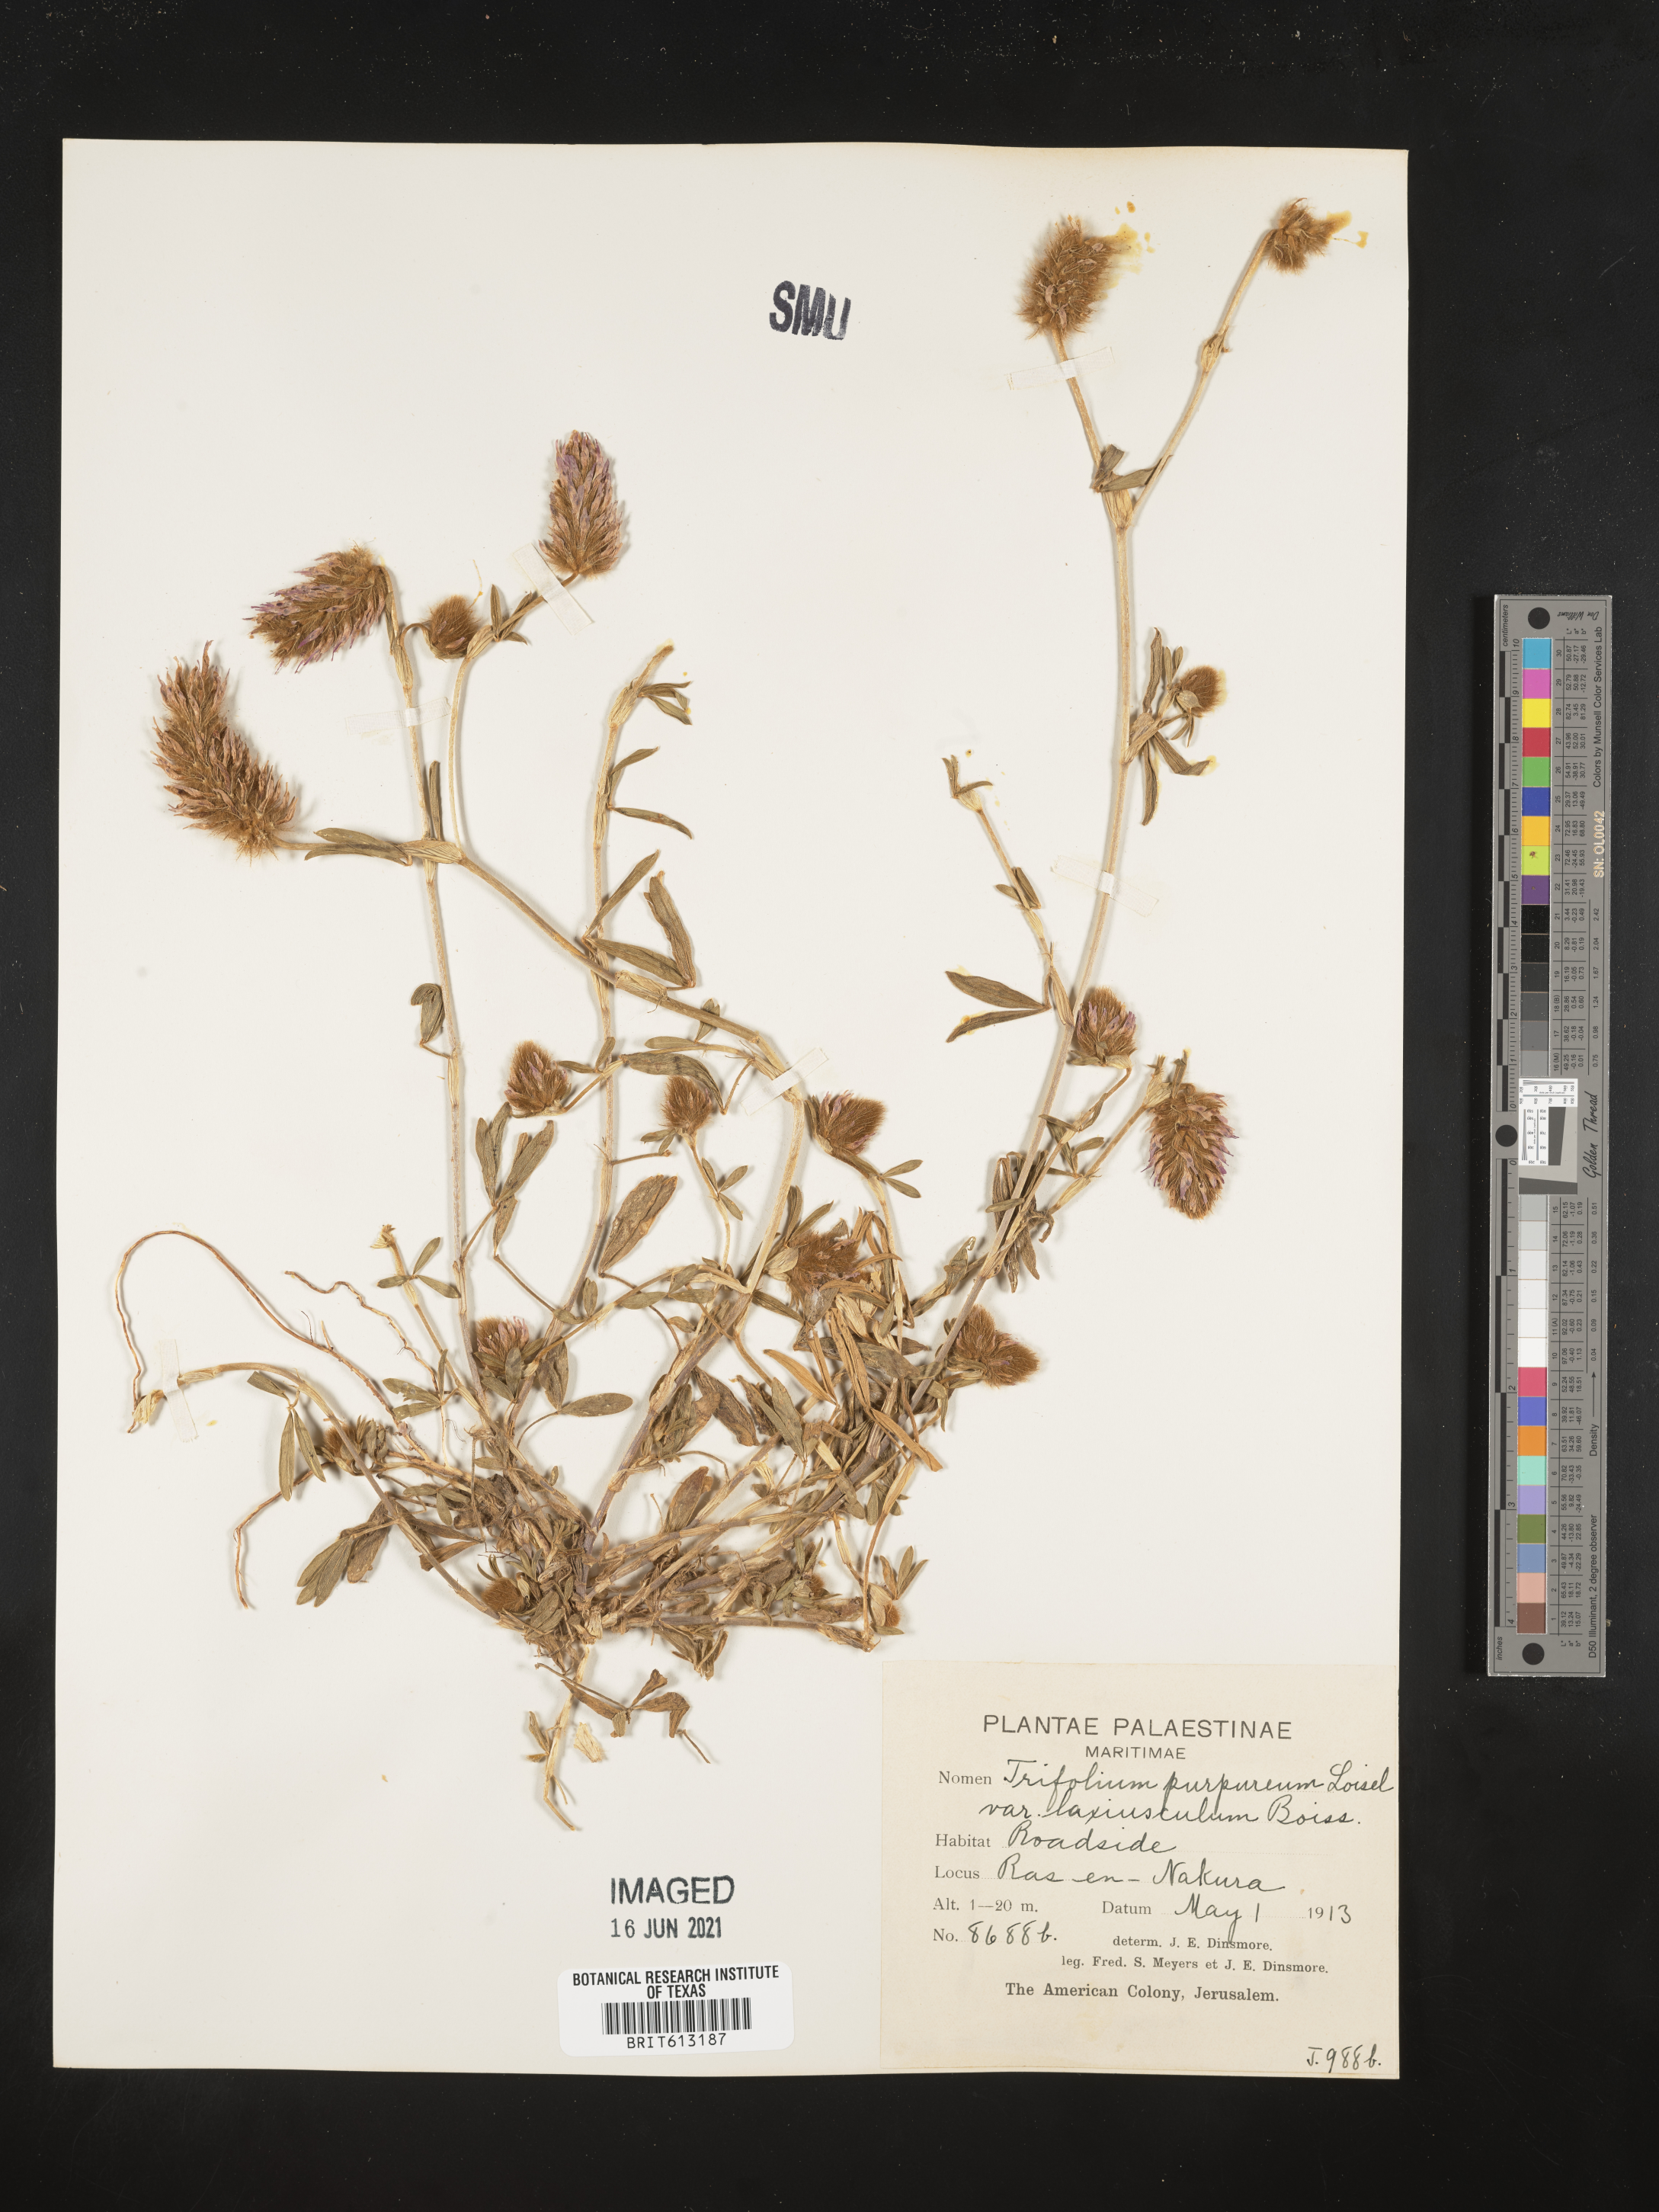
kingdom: Plantae
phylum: Tracheophyta
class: Magnoliopsida
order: Fabales
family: Fabaceae
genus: Trifolium
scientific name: Trifolium purpureum
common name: Purple clover
